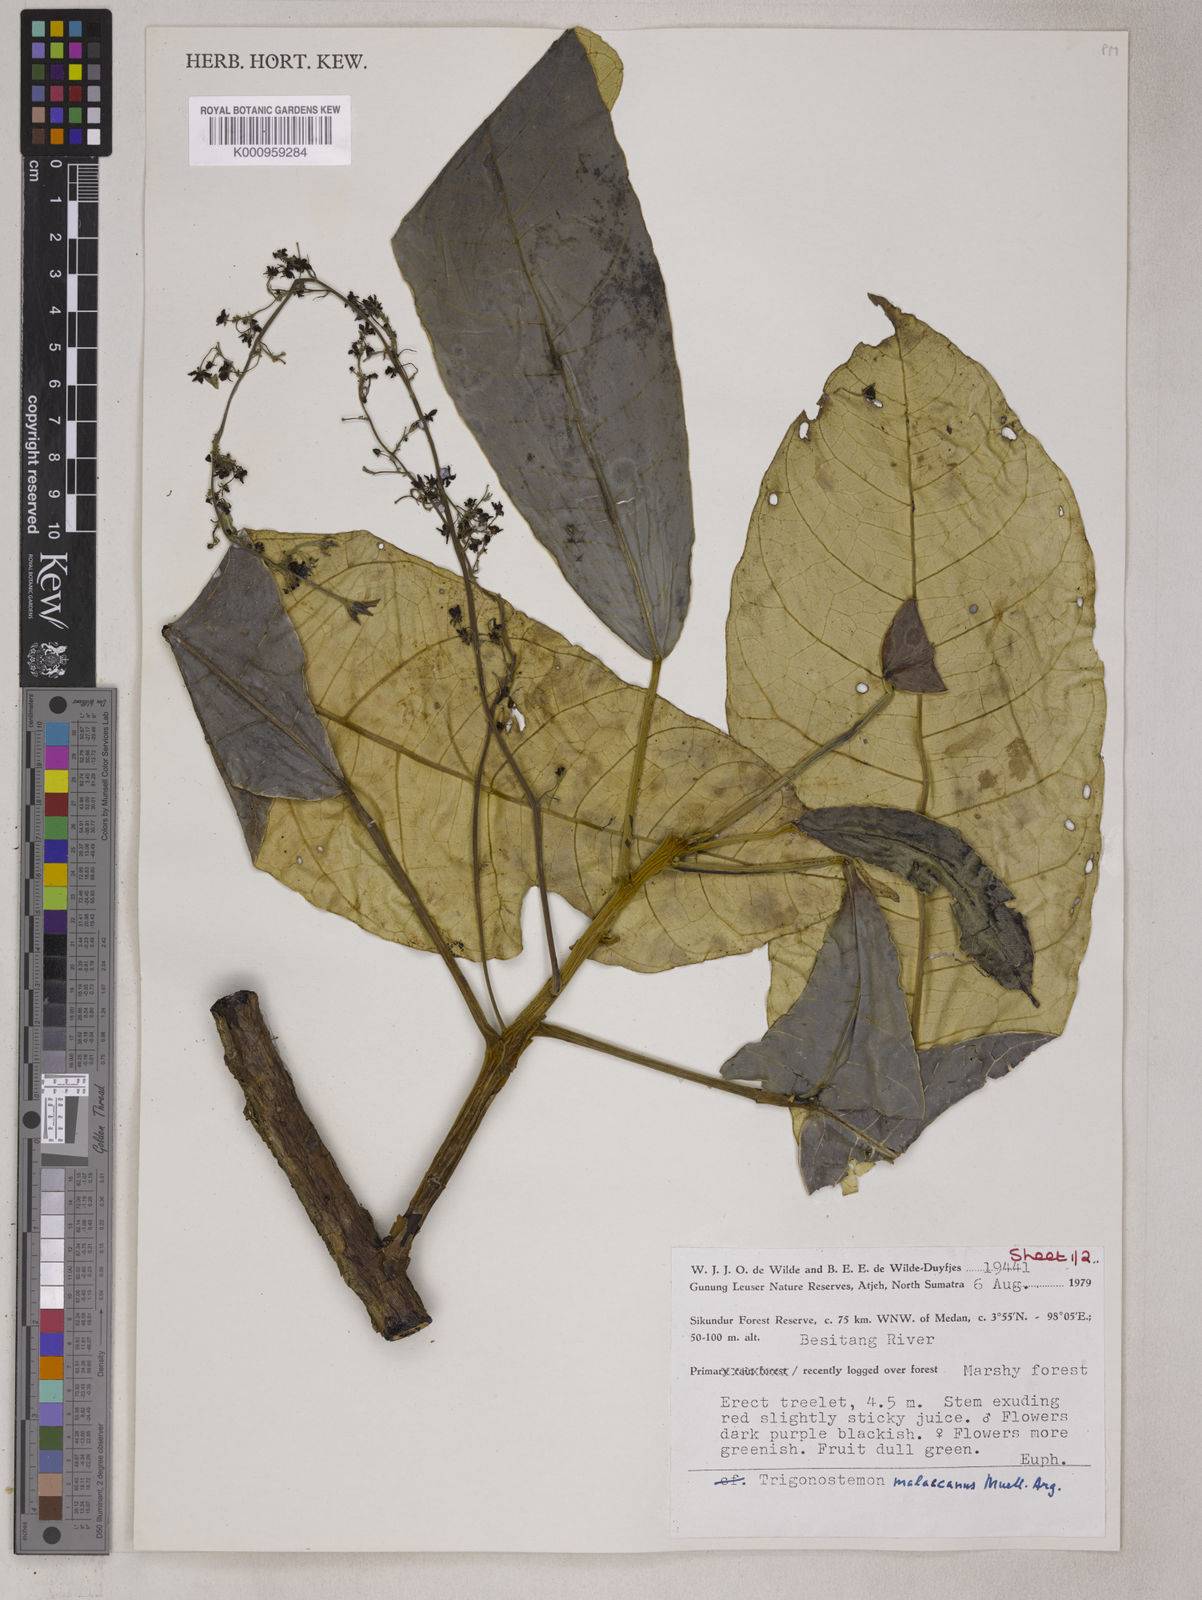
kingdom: Plantae
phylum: Tracheophyta
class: Magnoliopsida
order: Malpighiales
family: Euphorbiaceae
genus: Trigonostemon
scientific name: Trigonostemon magnificus
